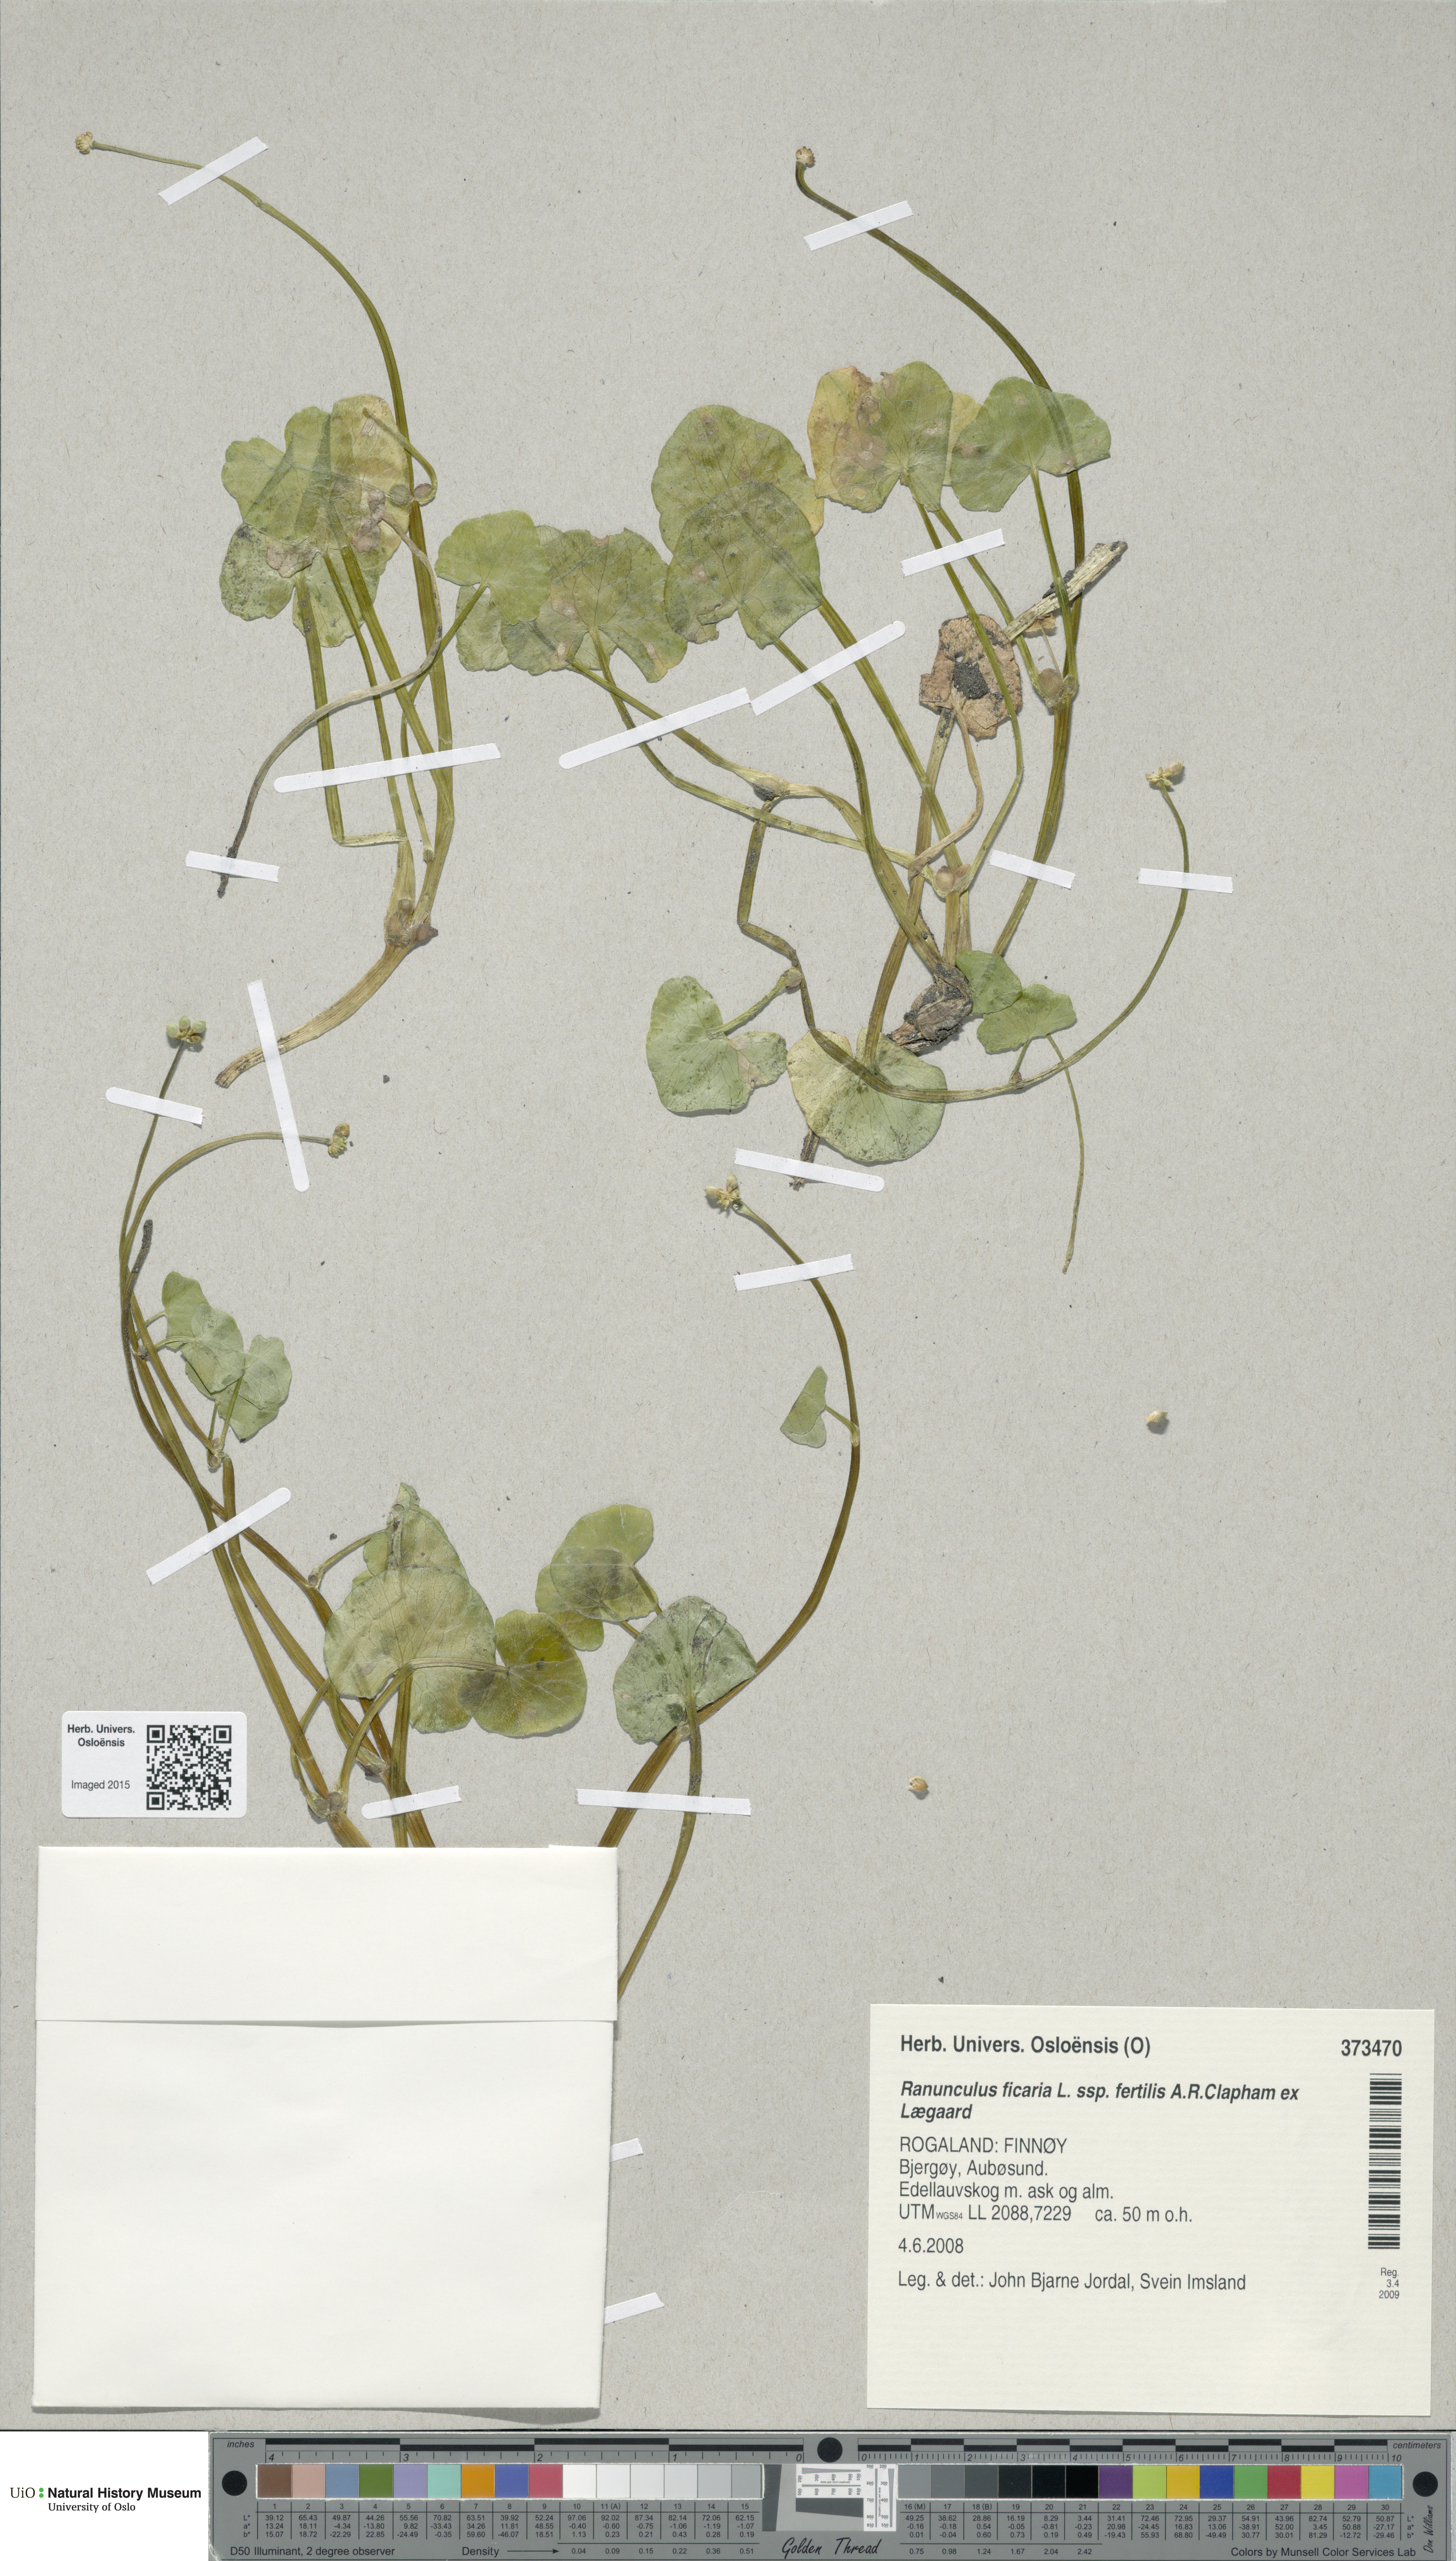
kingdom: Plantae
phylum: Tracheophyta
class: Magnoliopsida
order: Ranunculales
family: Ranunculaceae
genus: Ficaria
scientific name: Ficaria ambigua
